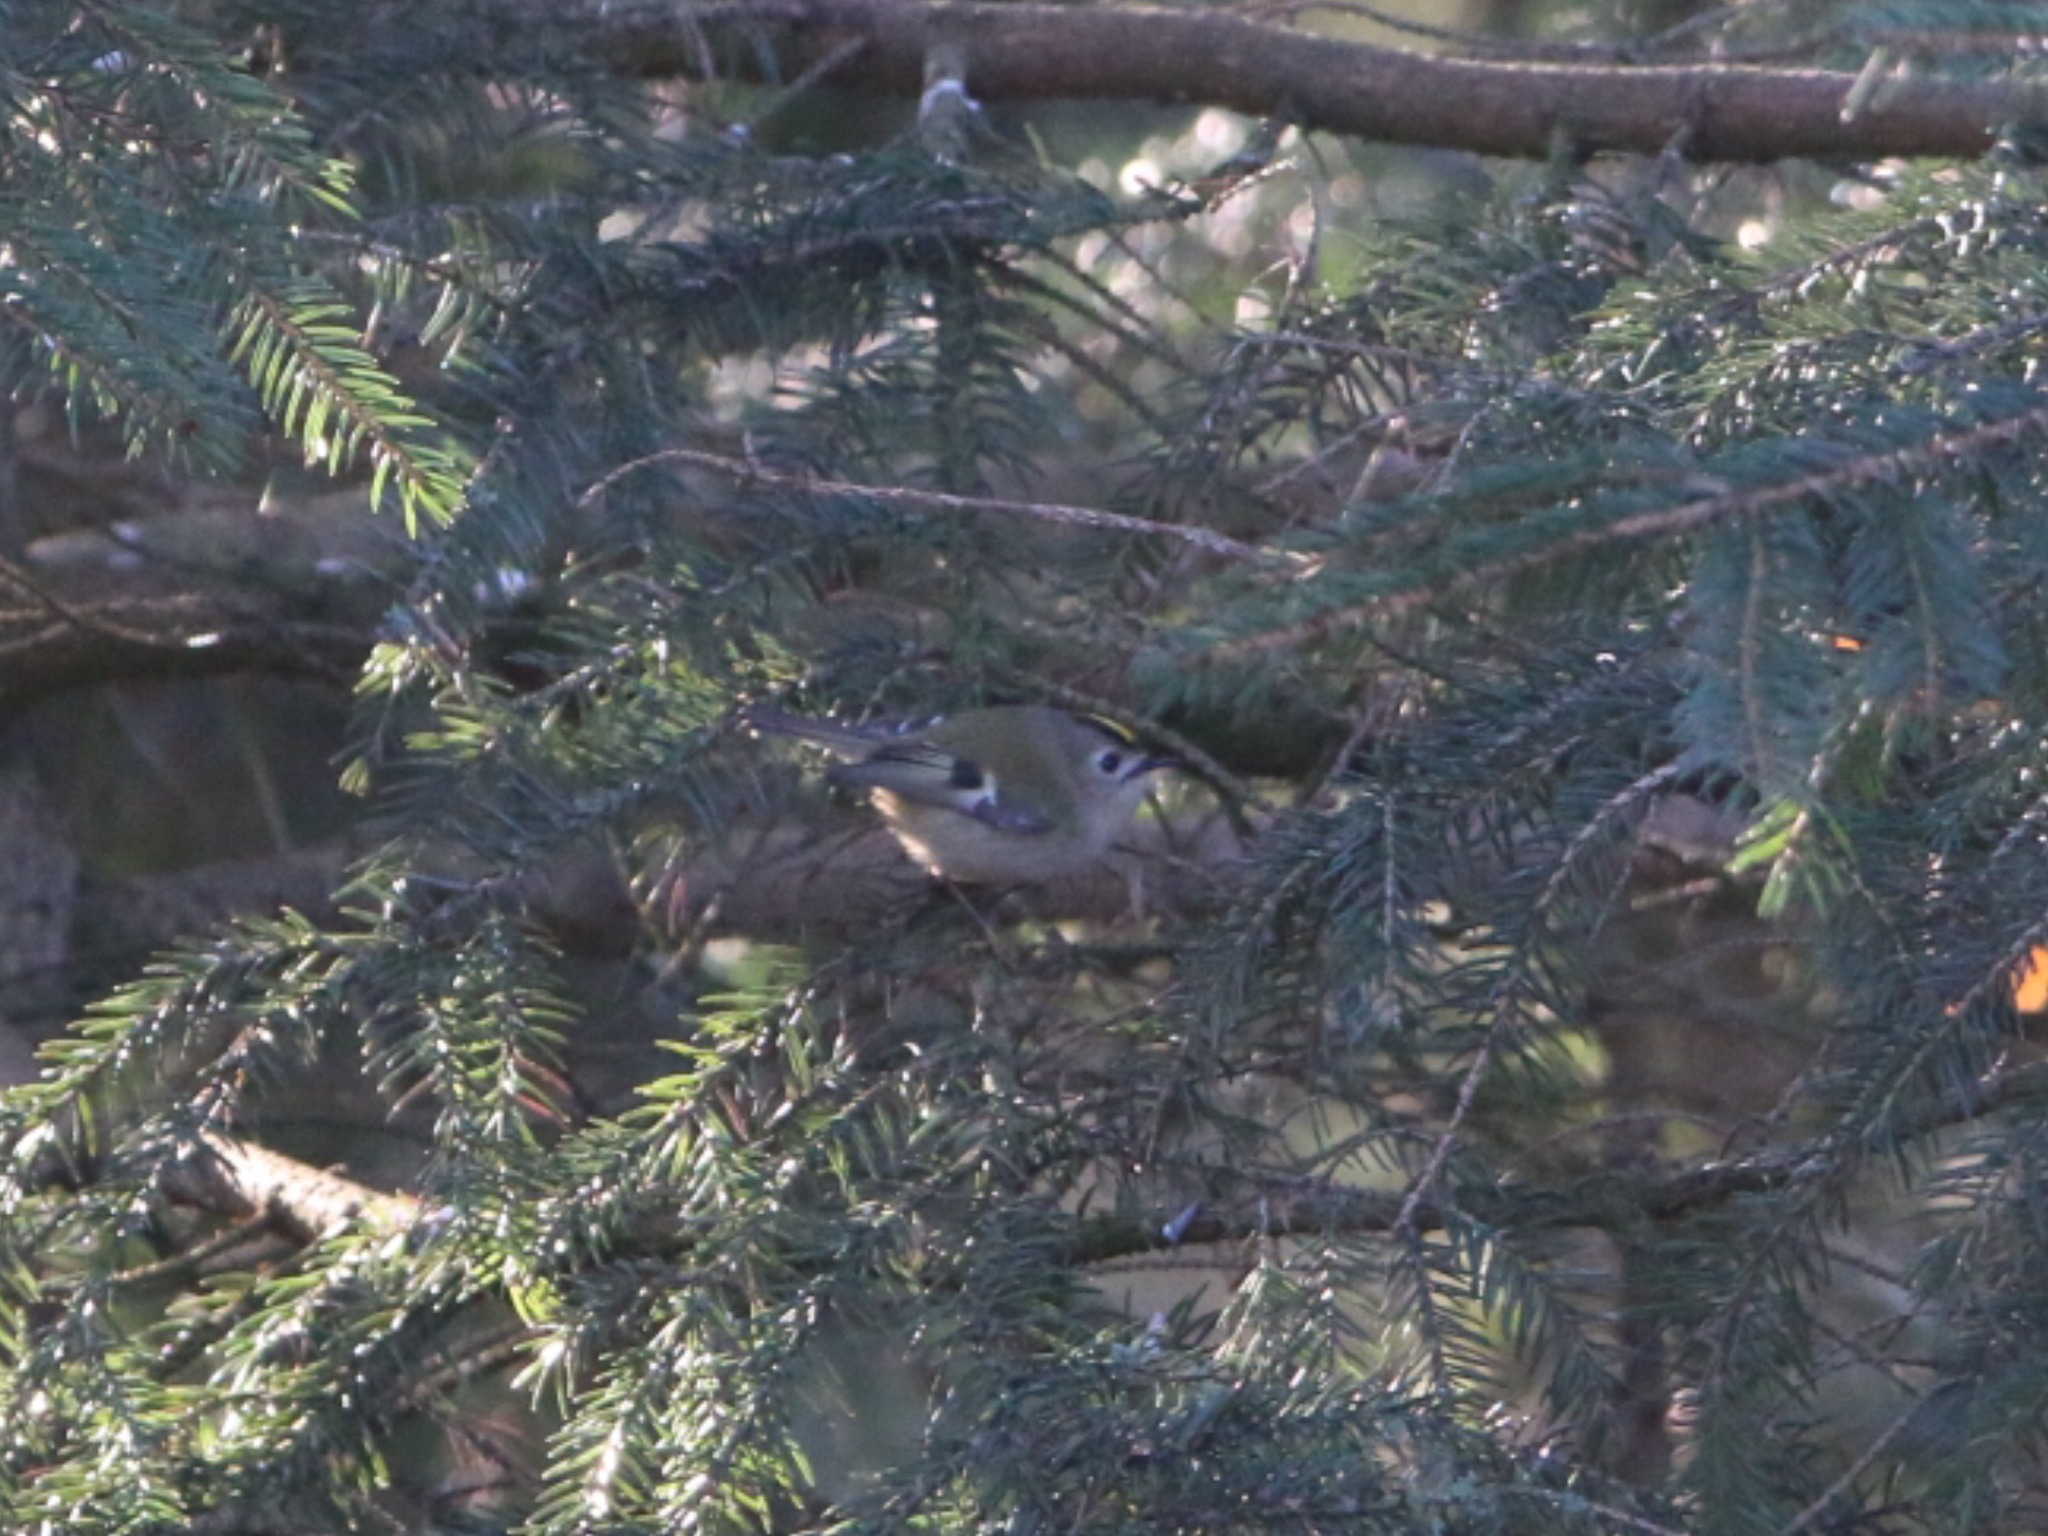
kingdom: Animalia
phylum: Chordata
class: Aves
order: Passeriformes
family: Regulidae
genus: Regulus
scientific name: Regulus regulus
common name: Fuglekonge
